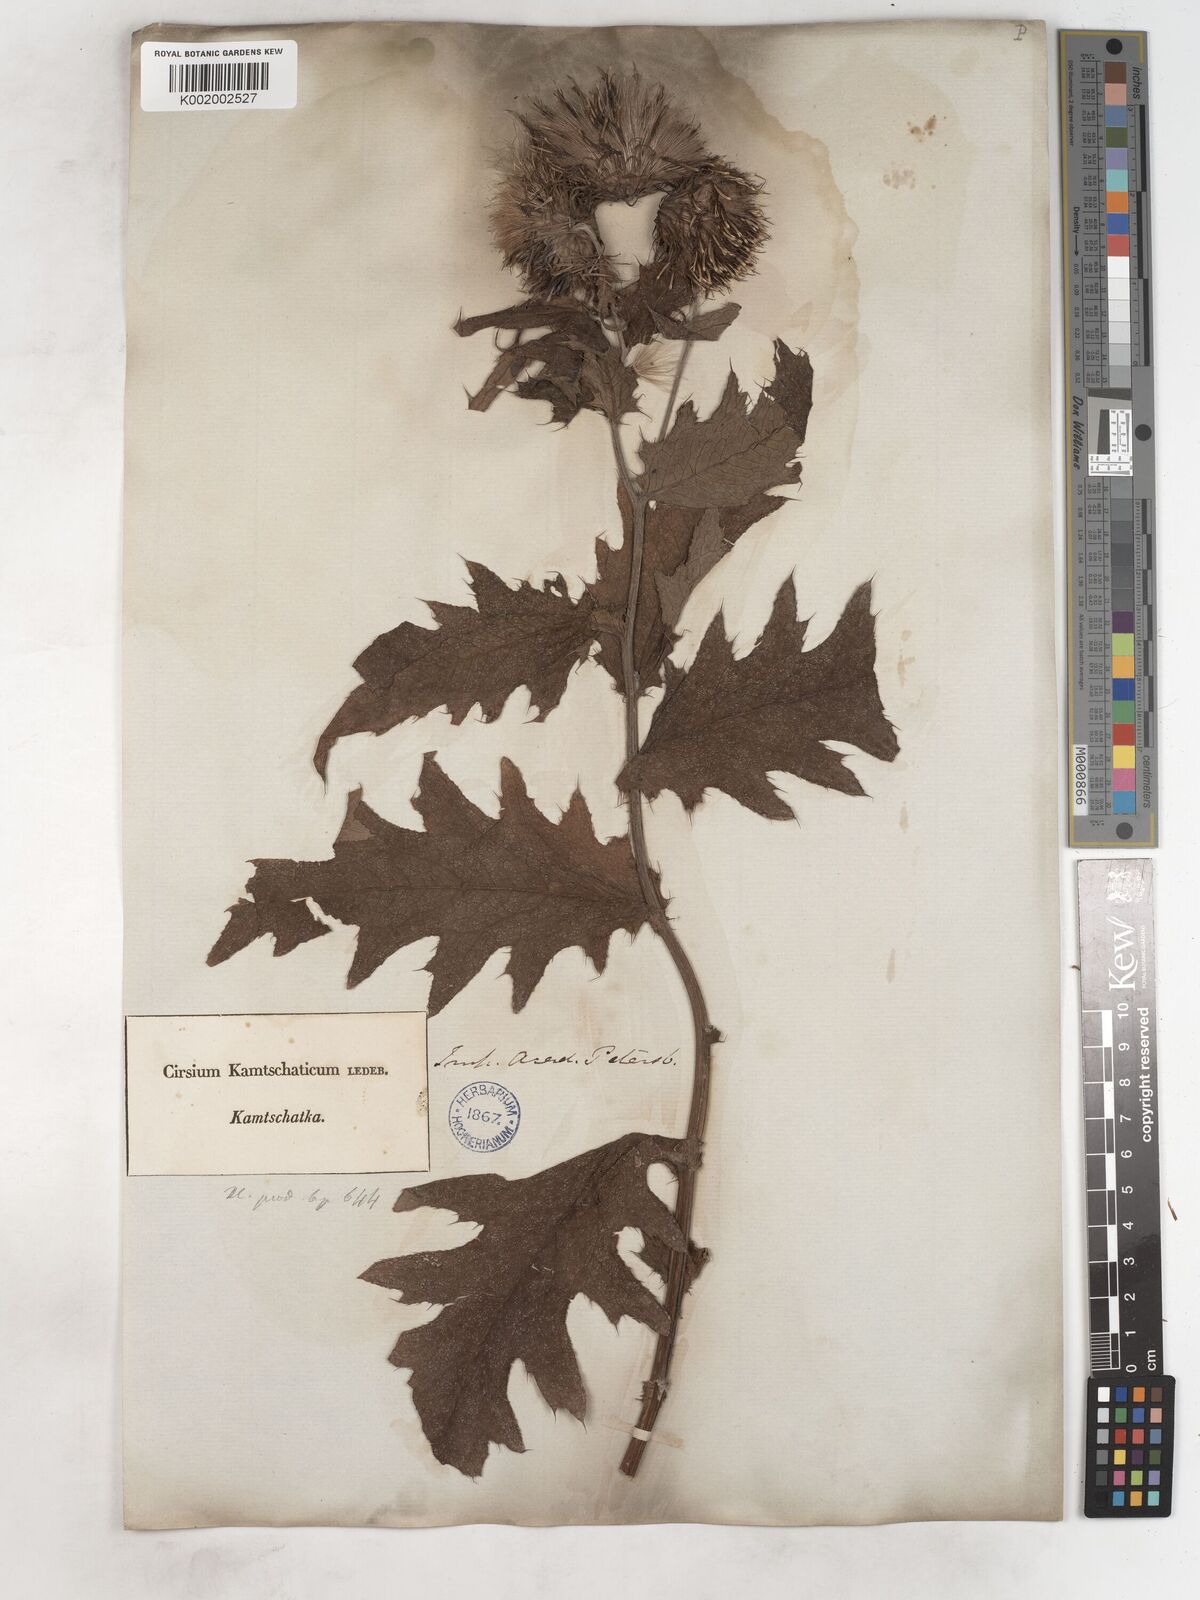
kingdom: Plantae
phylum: Tracheophyta
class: Magnoliopsida
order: Asterales
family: Asteraceae
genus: Cirsium
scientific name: Cirsium kamtschaticum
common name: Kamchatka thistle
